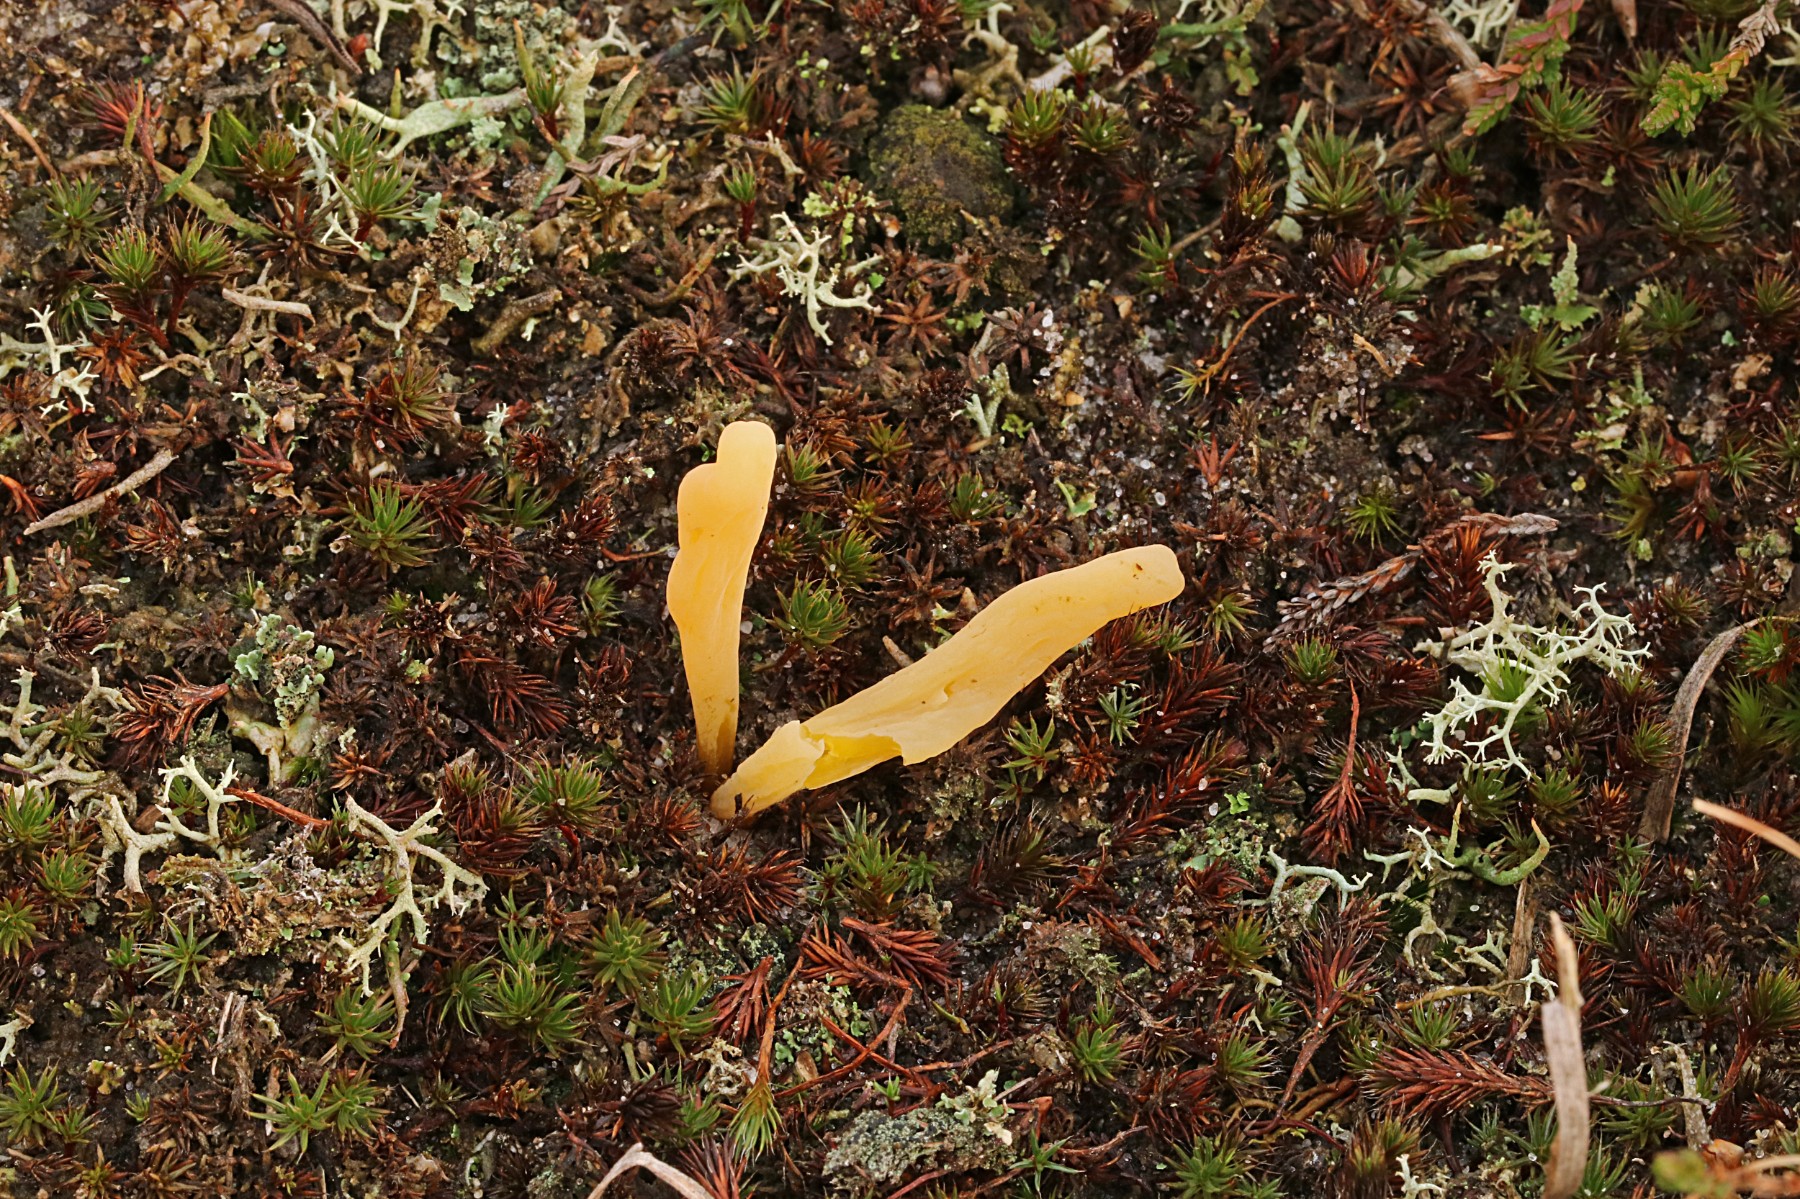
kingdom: Fungi
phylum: Basidiomycota
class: Agaricomycetes
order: Agaricales
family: Clavariaceae
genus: Clavaria
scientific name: Clavaria argillacea
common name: lerfarvet køllesvamp
